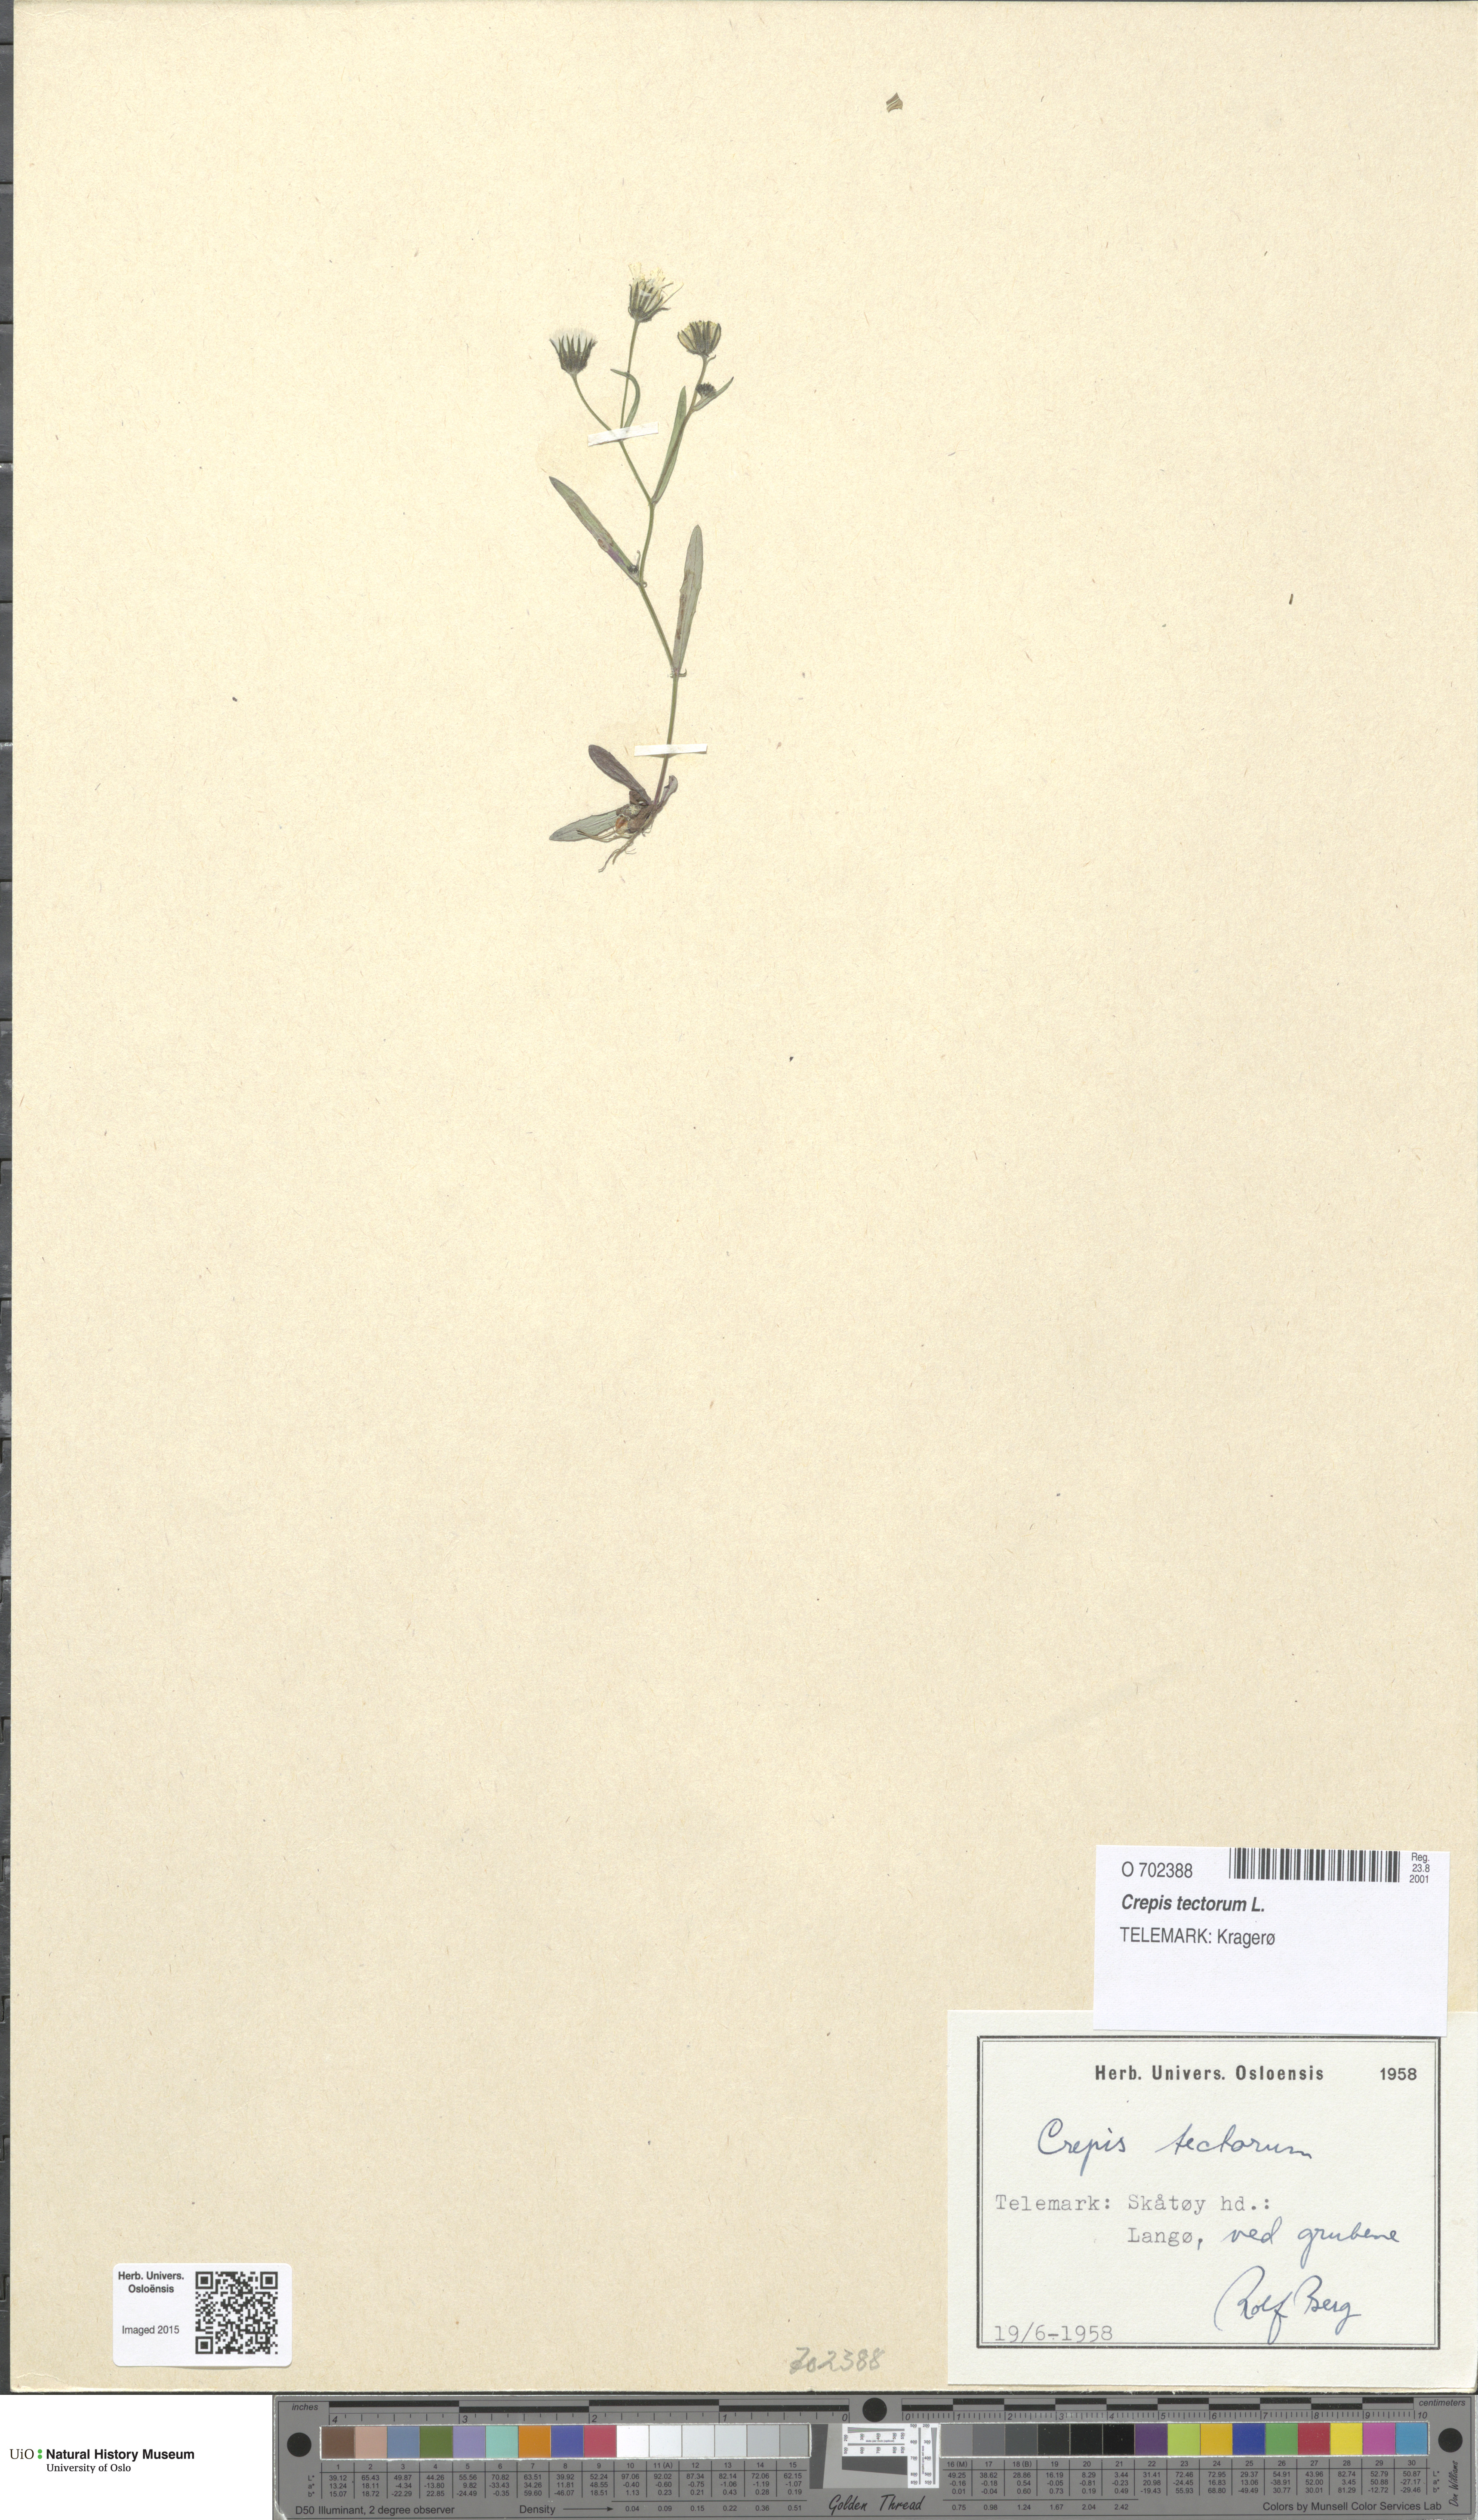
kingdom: Plantae
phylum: Tracheophyta
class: Magnoliopsida
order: Asterales
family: Asteraceae
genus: Crepis
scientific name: Crepis tectorum
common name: Narrow-leaved hawk's-beard
